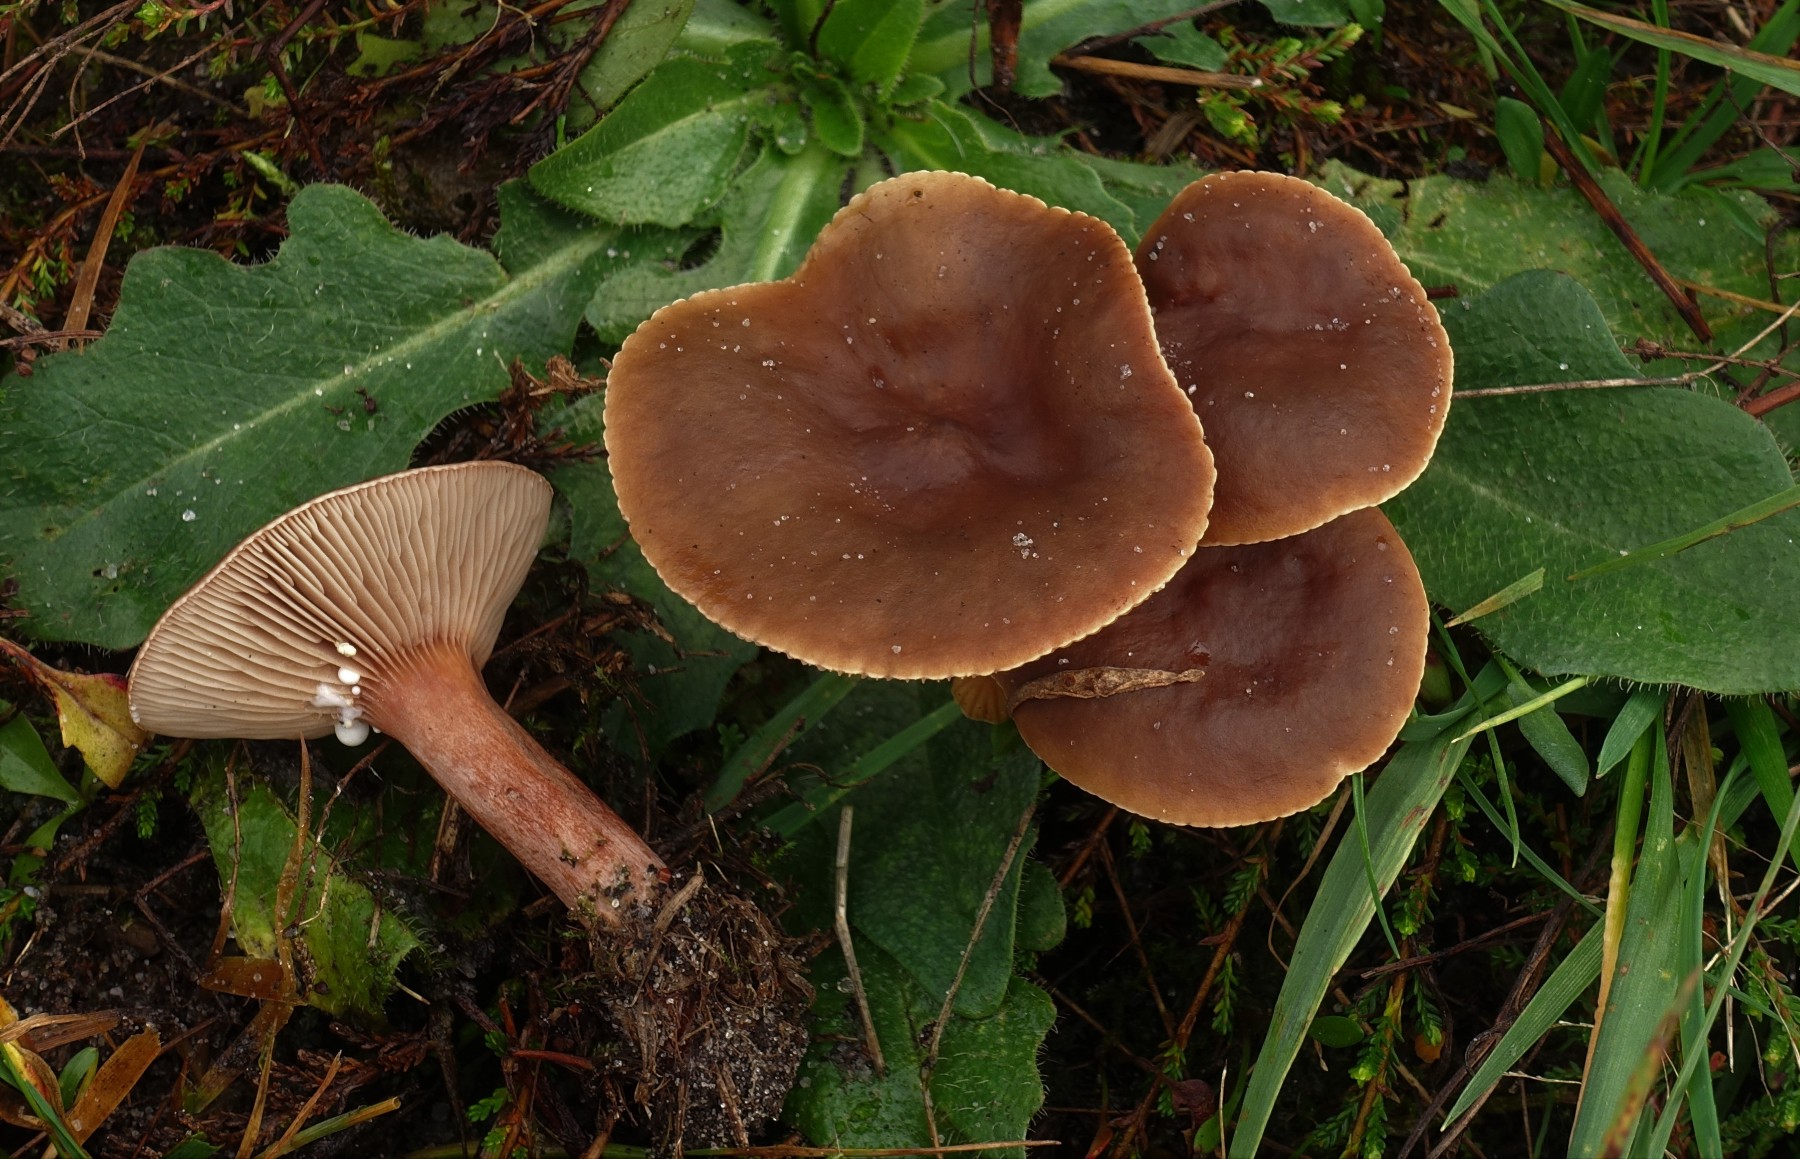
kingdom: Fungi
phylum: Basidiomycota
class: Agaricomycetes
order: Russulales
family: Russulaceae
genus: Lactarius
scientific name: Lactarius hepaticus
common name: leverbrun mælkehat
